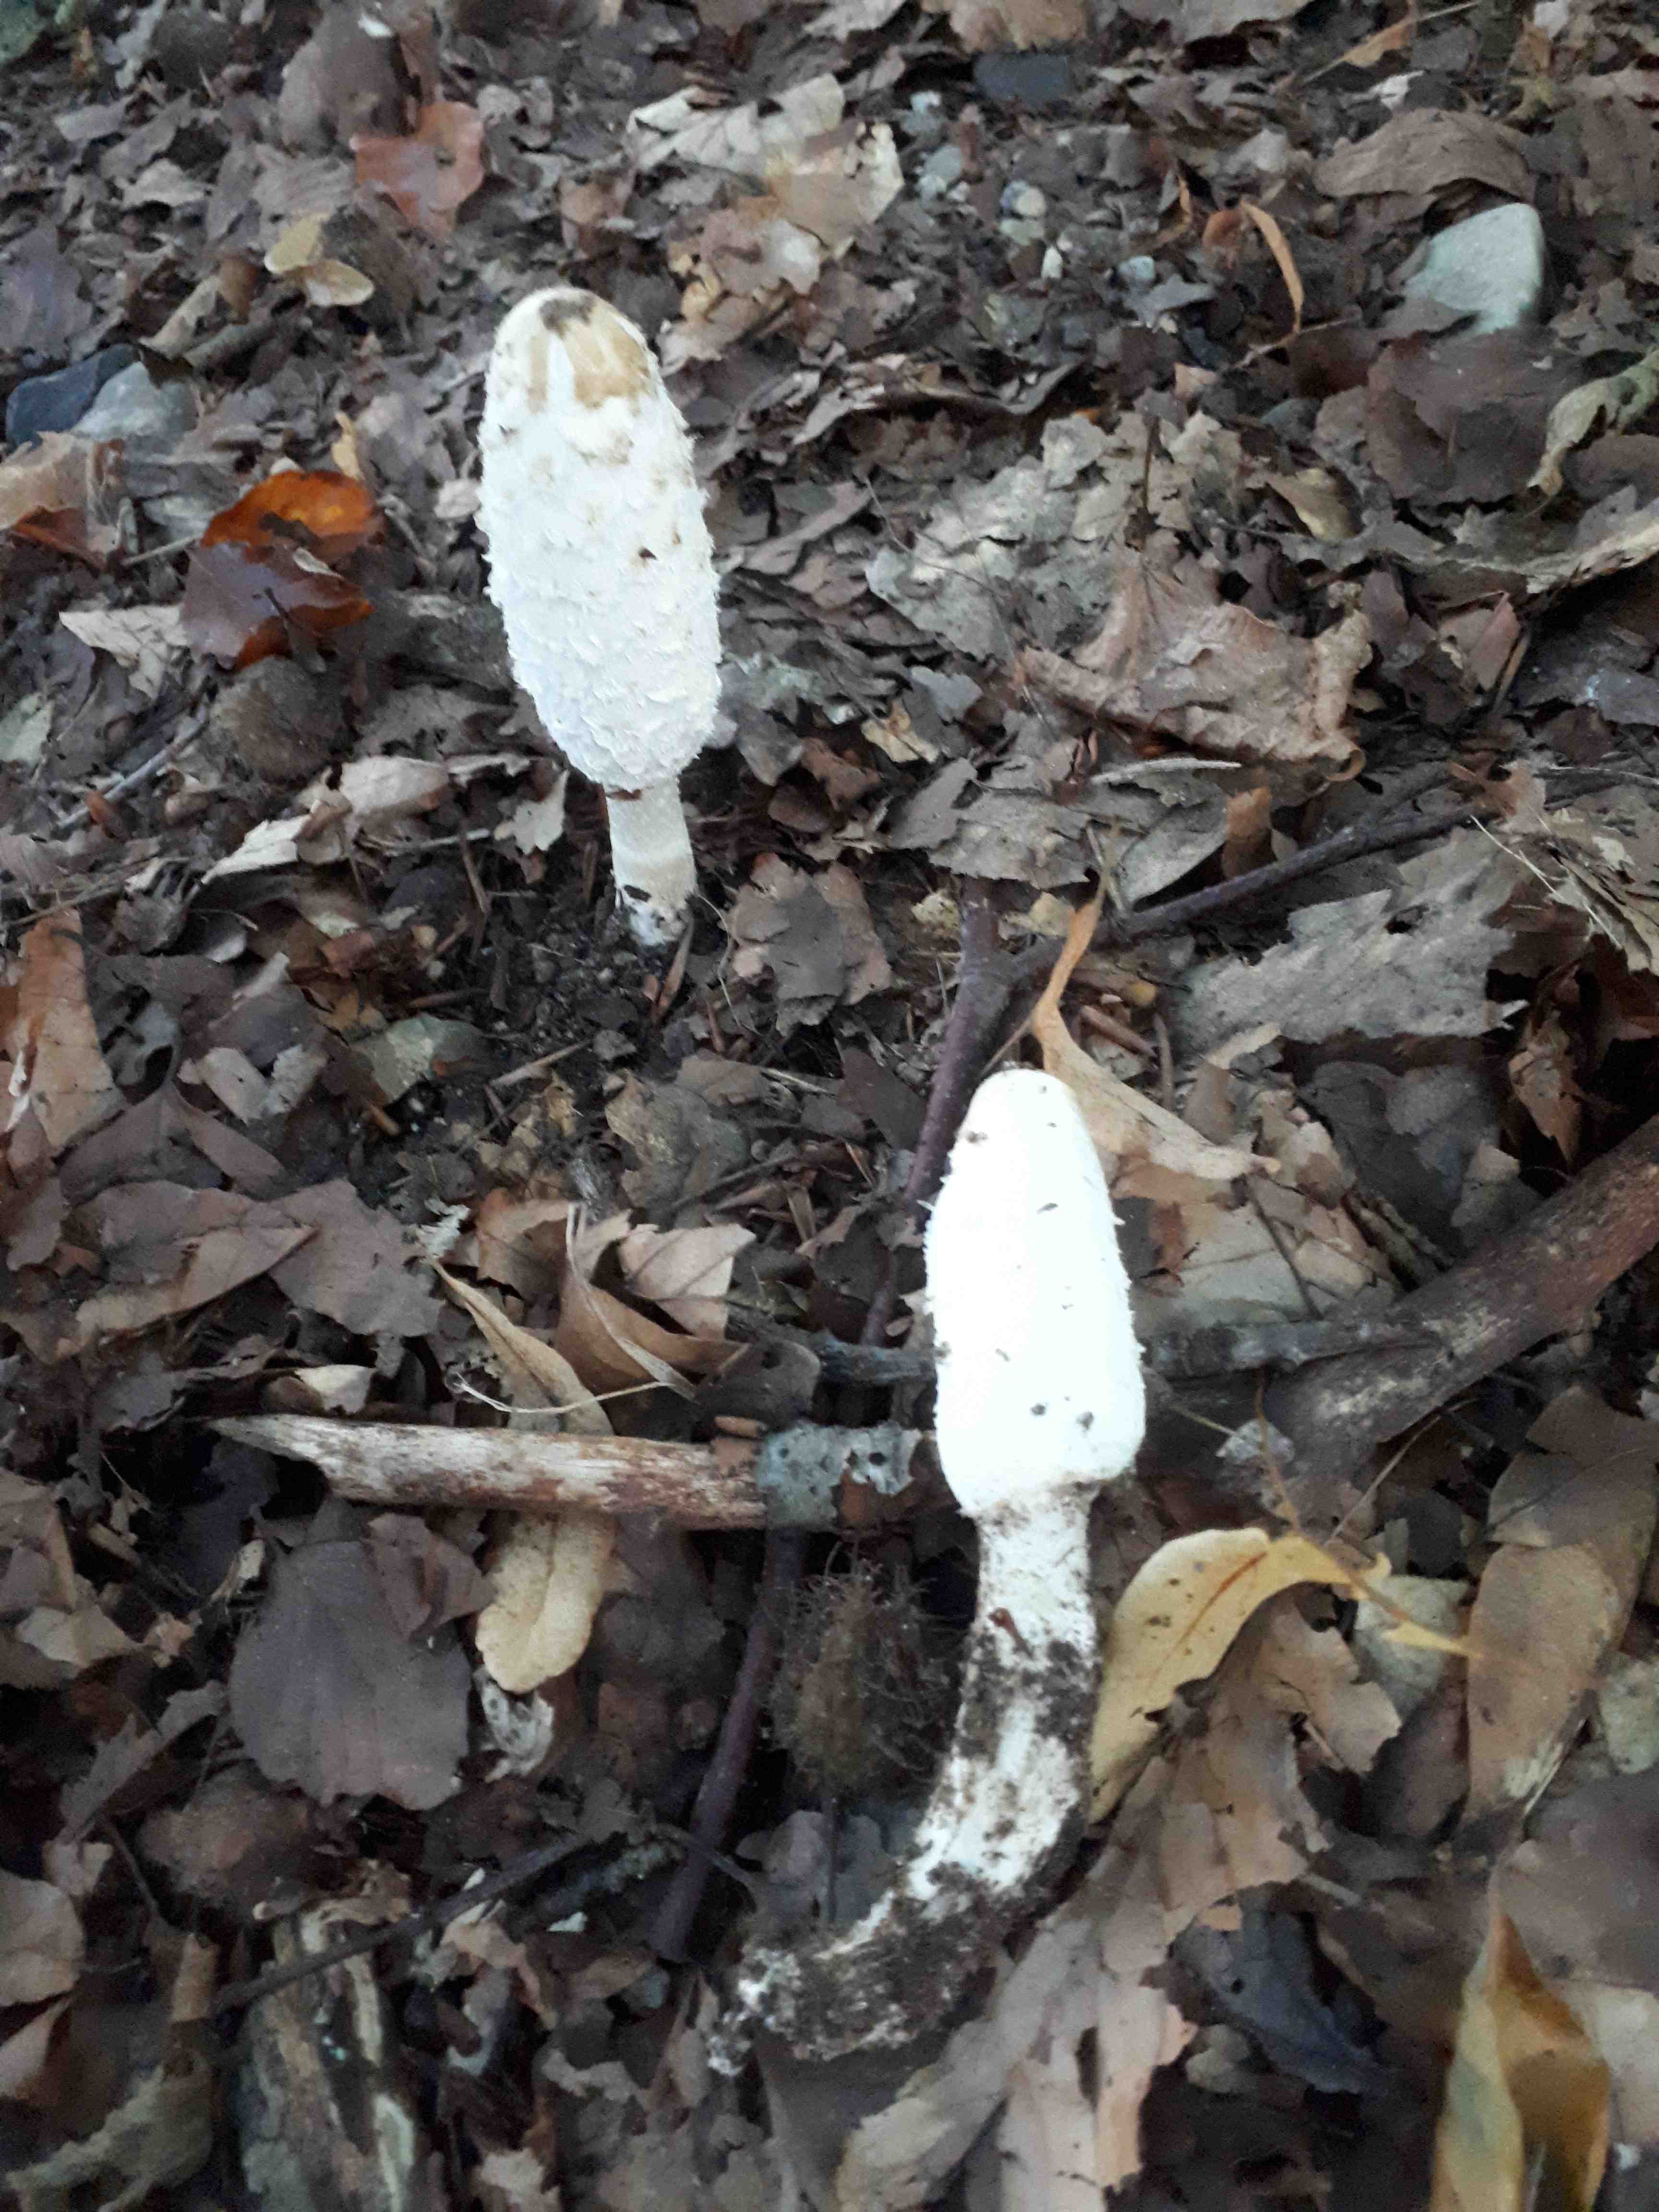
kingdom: Fungi
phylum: Basidiomycota
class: Agaricomycetes
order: Agaricales
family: Agaricaceae
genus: Coprinus
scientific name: Coprinus comatus
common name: stor parykhat
